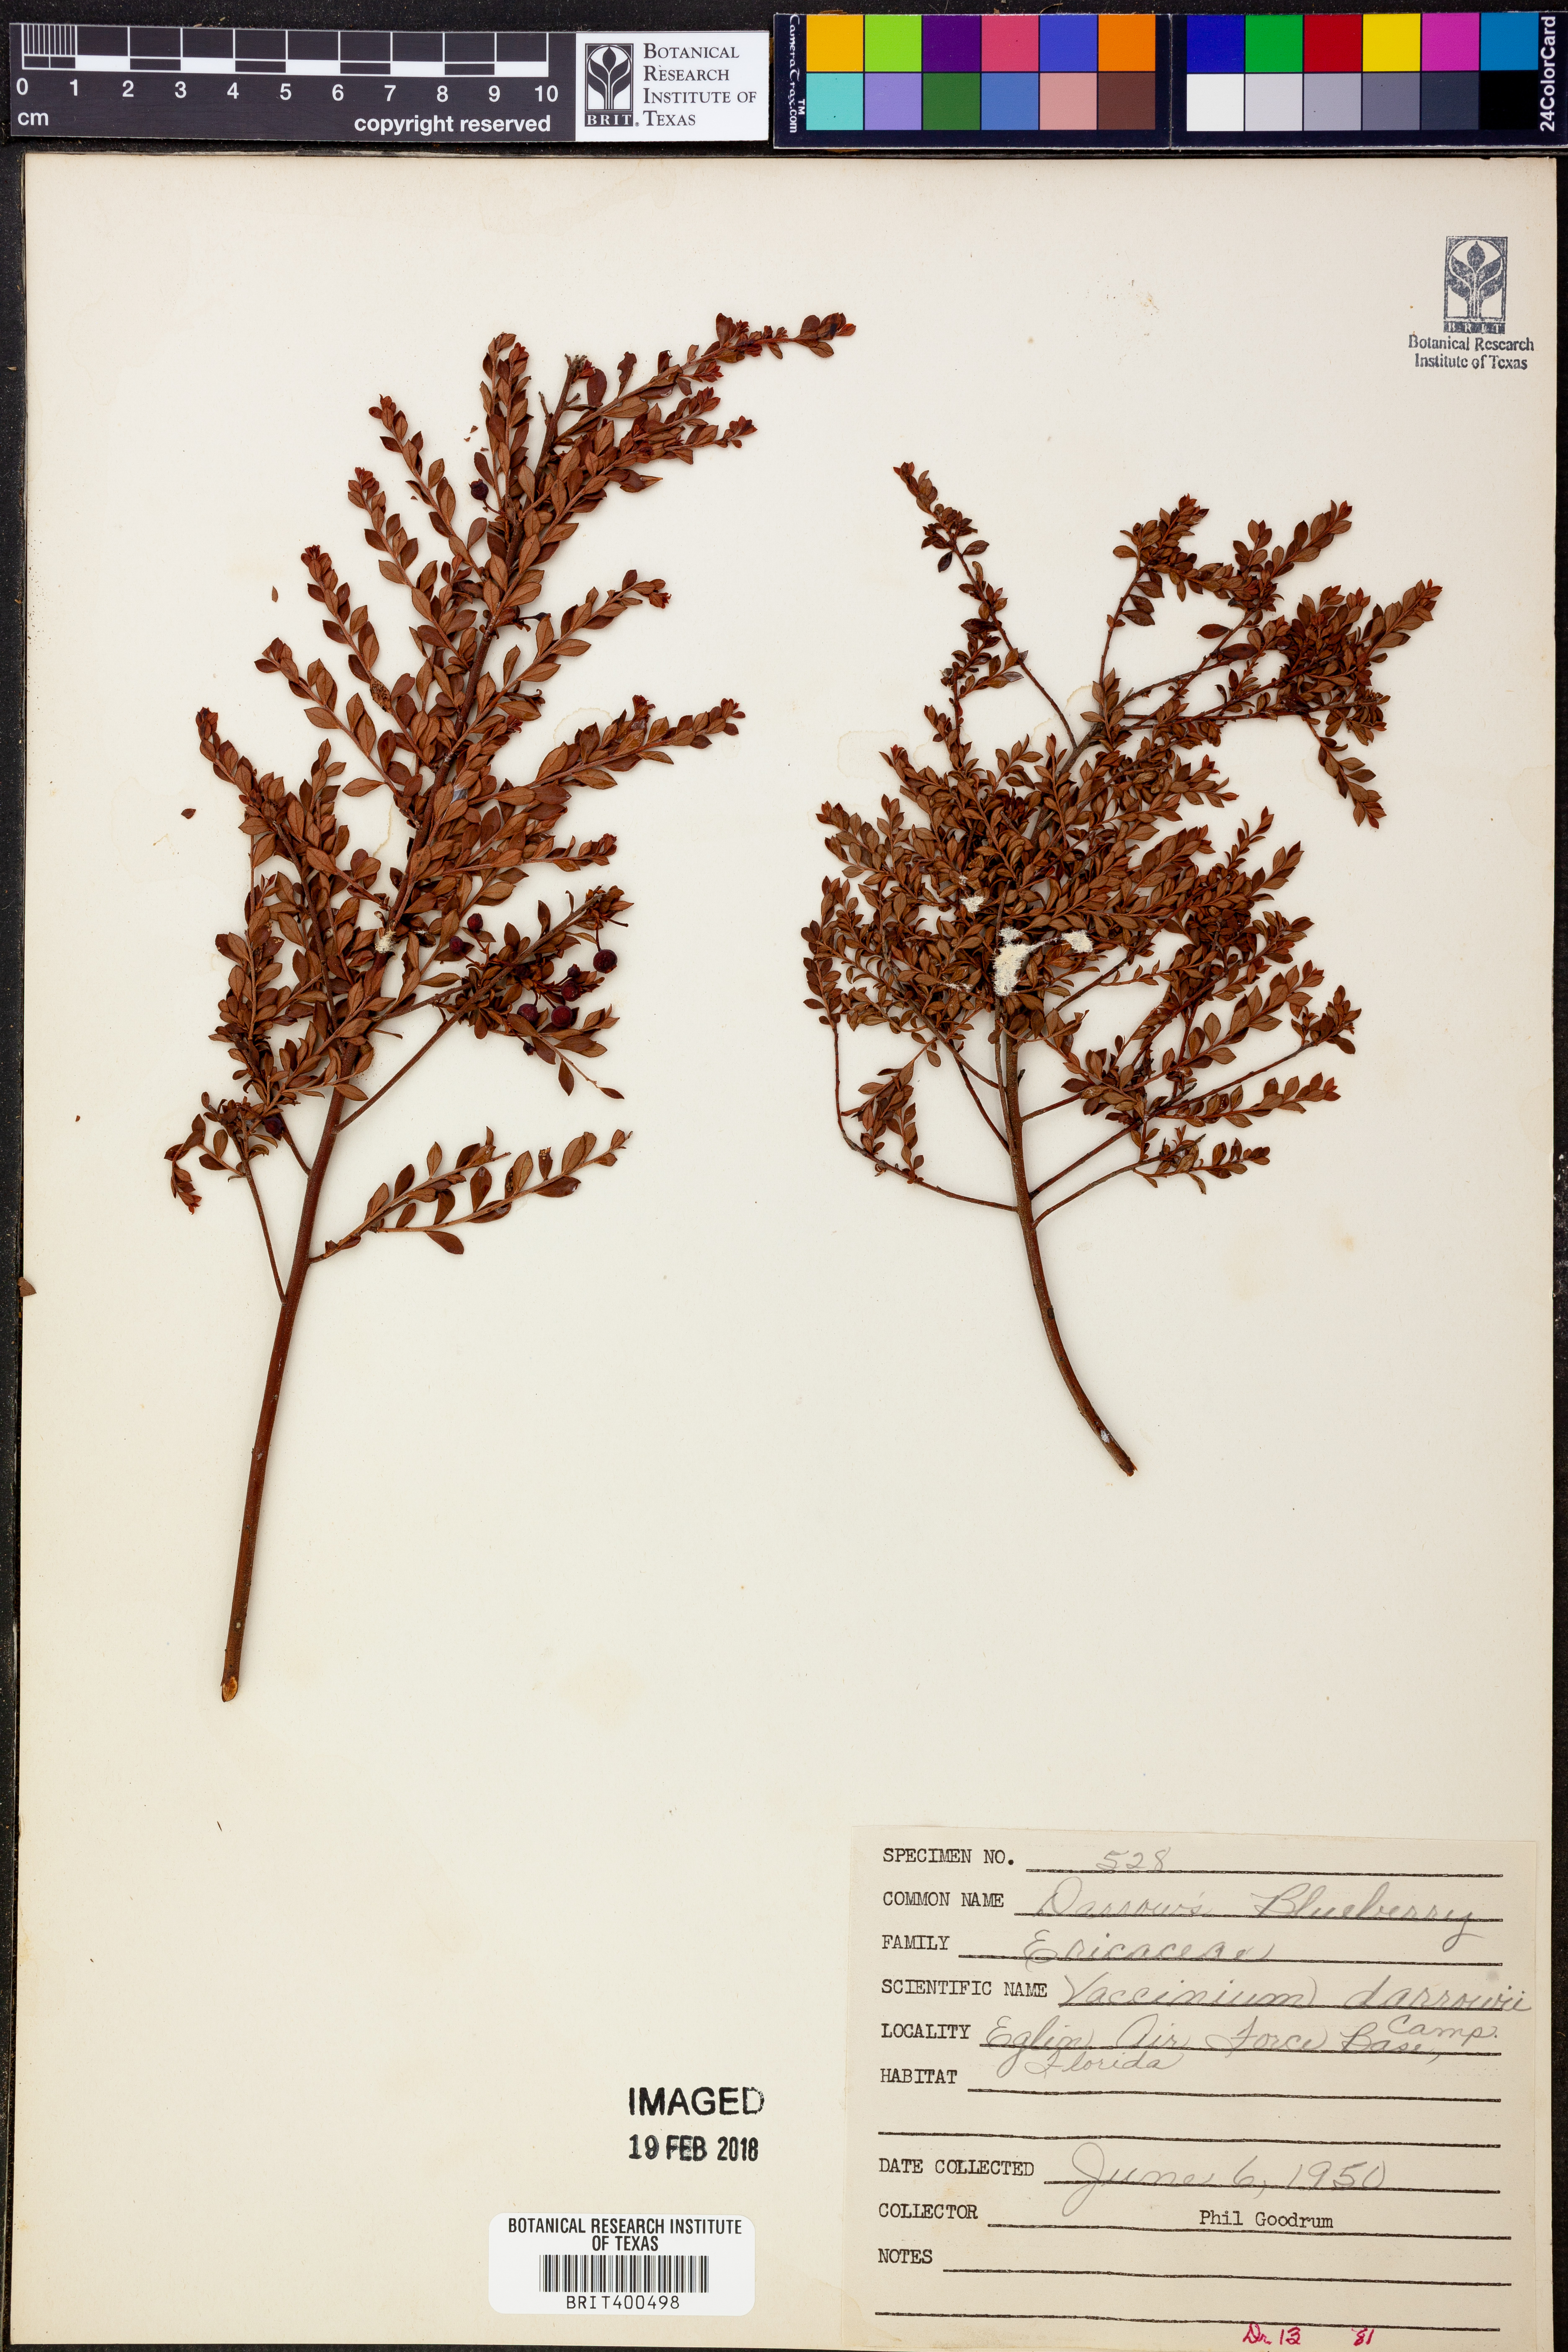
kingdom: Plantae
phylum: Tracheophyta
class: Magnoliopsida
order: Ericales
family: Ericaceae
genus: Vaccinium
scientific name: Vaccinium darrowii
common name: Darrow's blueberry
